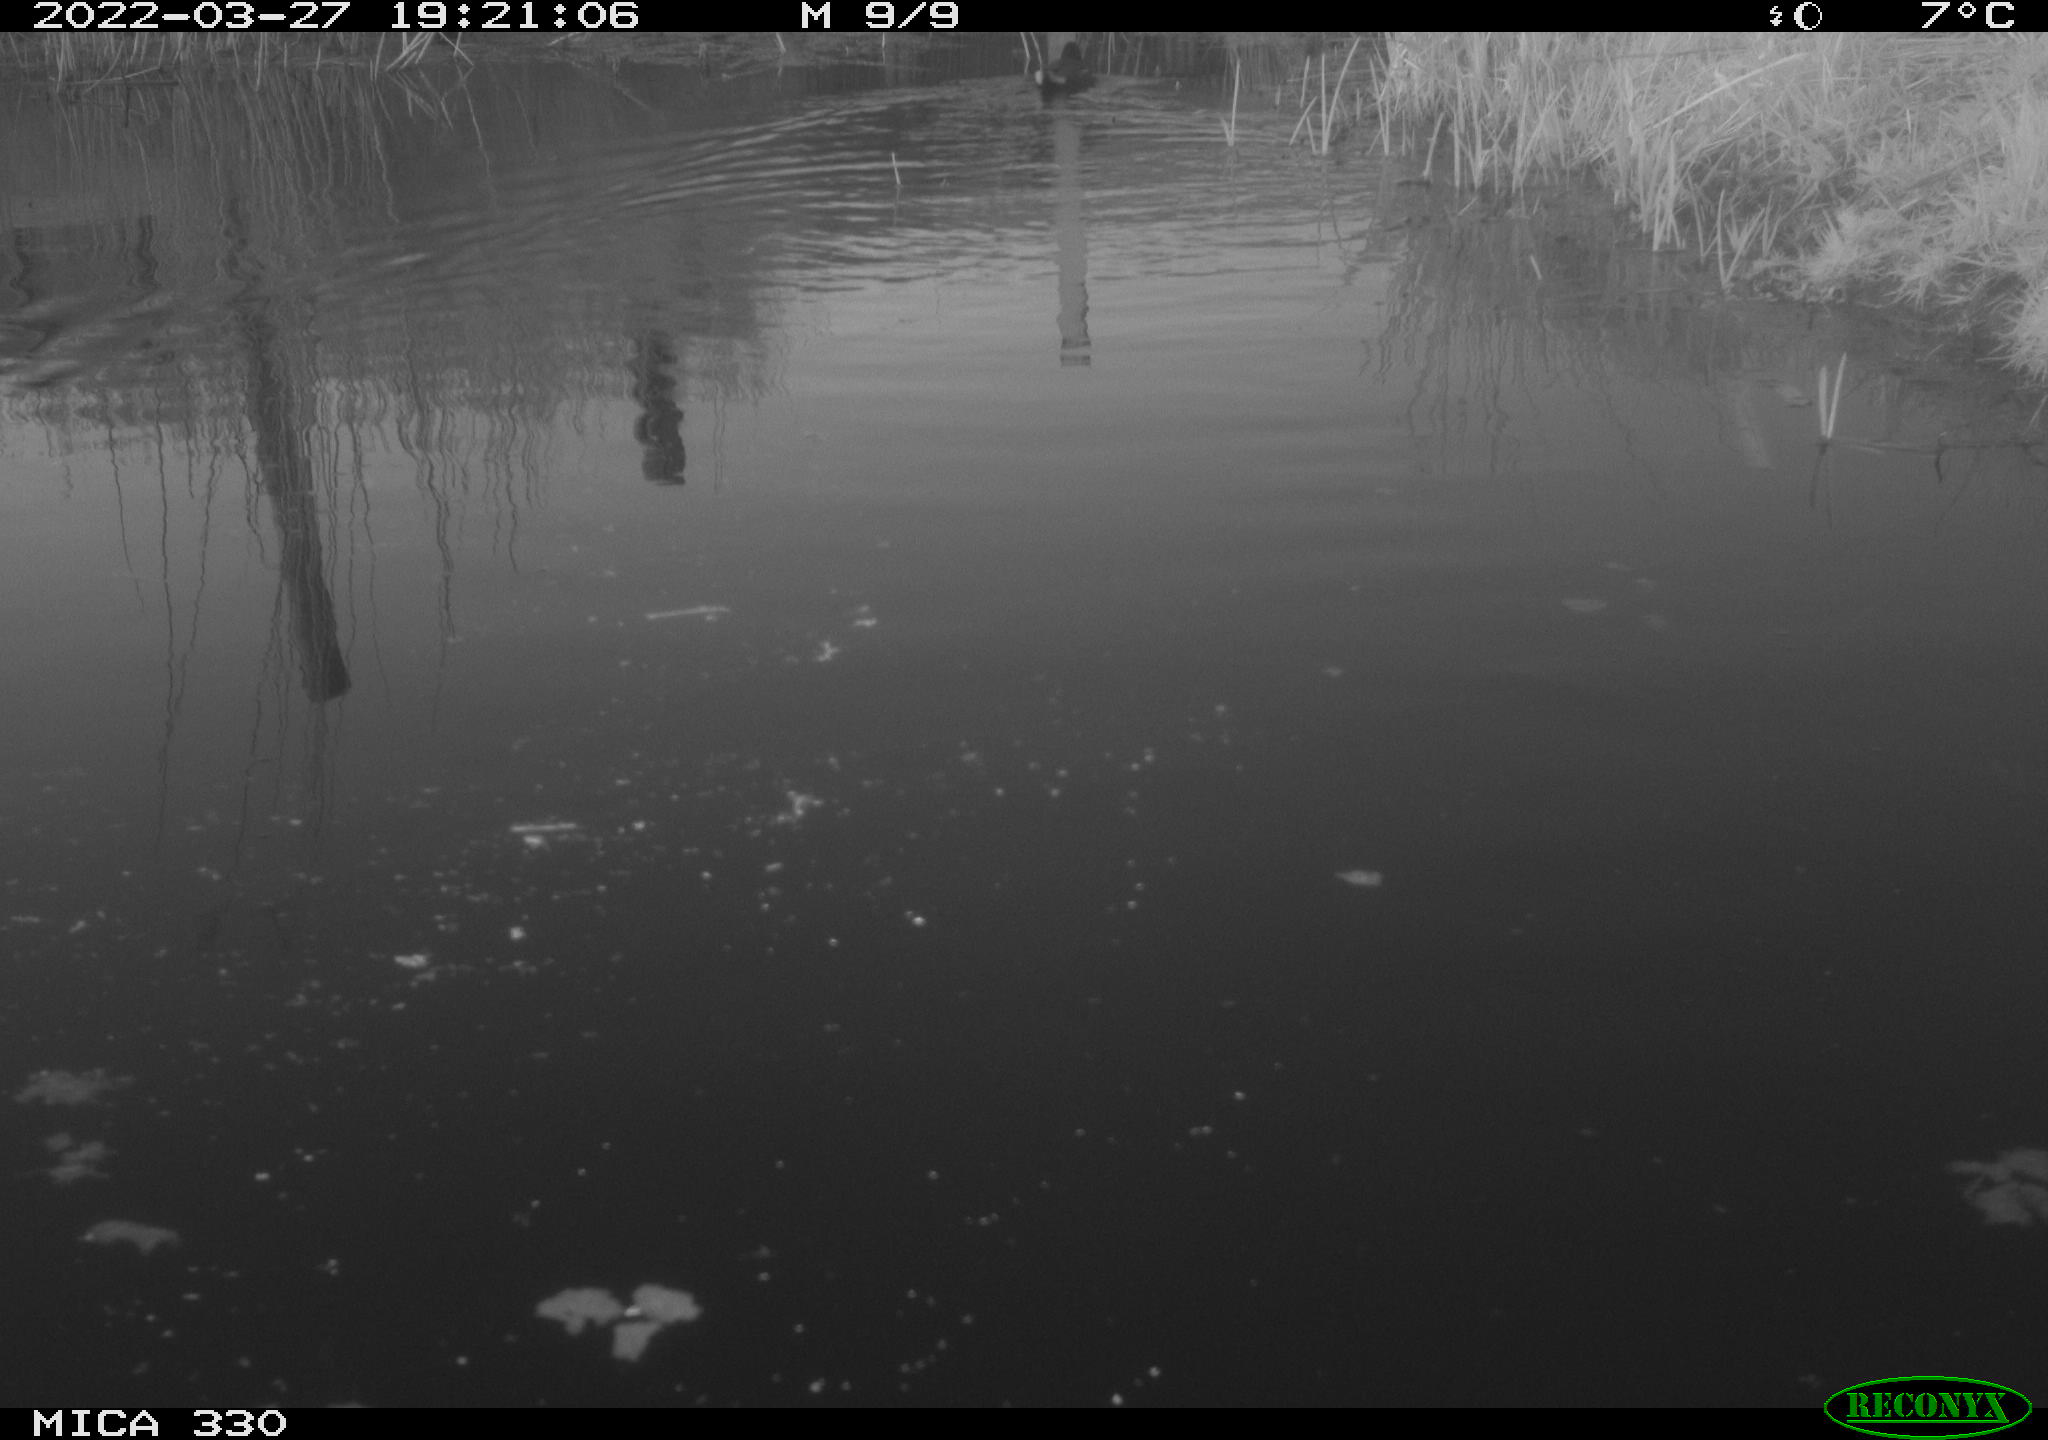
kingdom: Animalia
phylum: Chordata
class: Aves
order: Gruiformes
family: Rallidae
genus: Gallinula
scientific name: Gallinula chloropus
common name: Common moorhen
